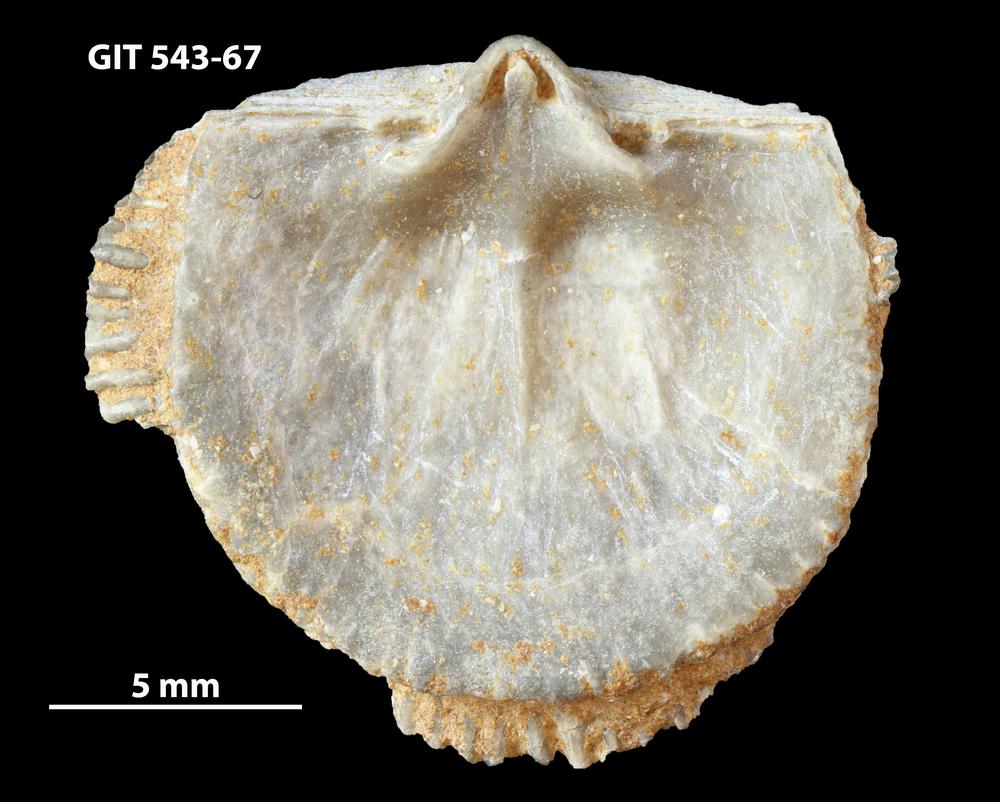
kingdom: Animalia
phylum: Brachiopoda
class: Rhynchonellata
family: Clitambonitidae
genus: Clitambonites
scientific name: Clitambonites Orthisina schmidti
